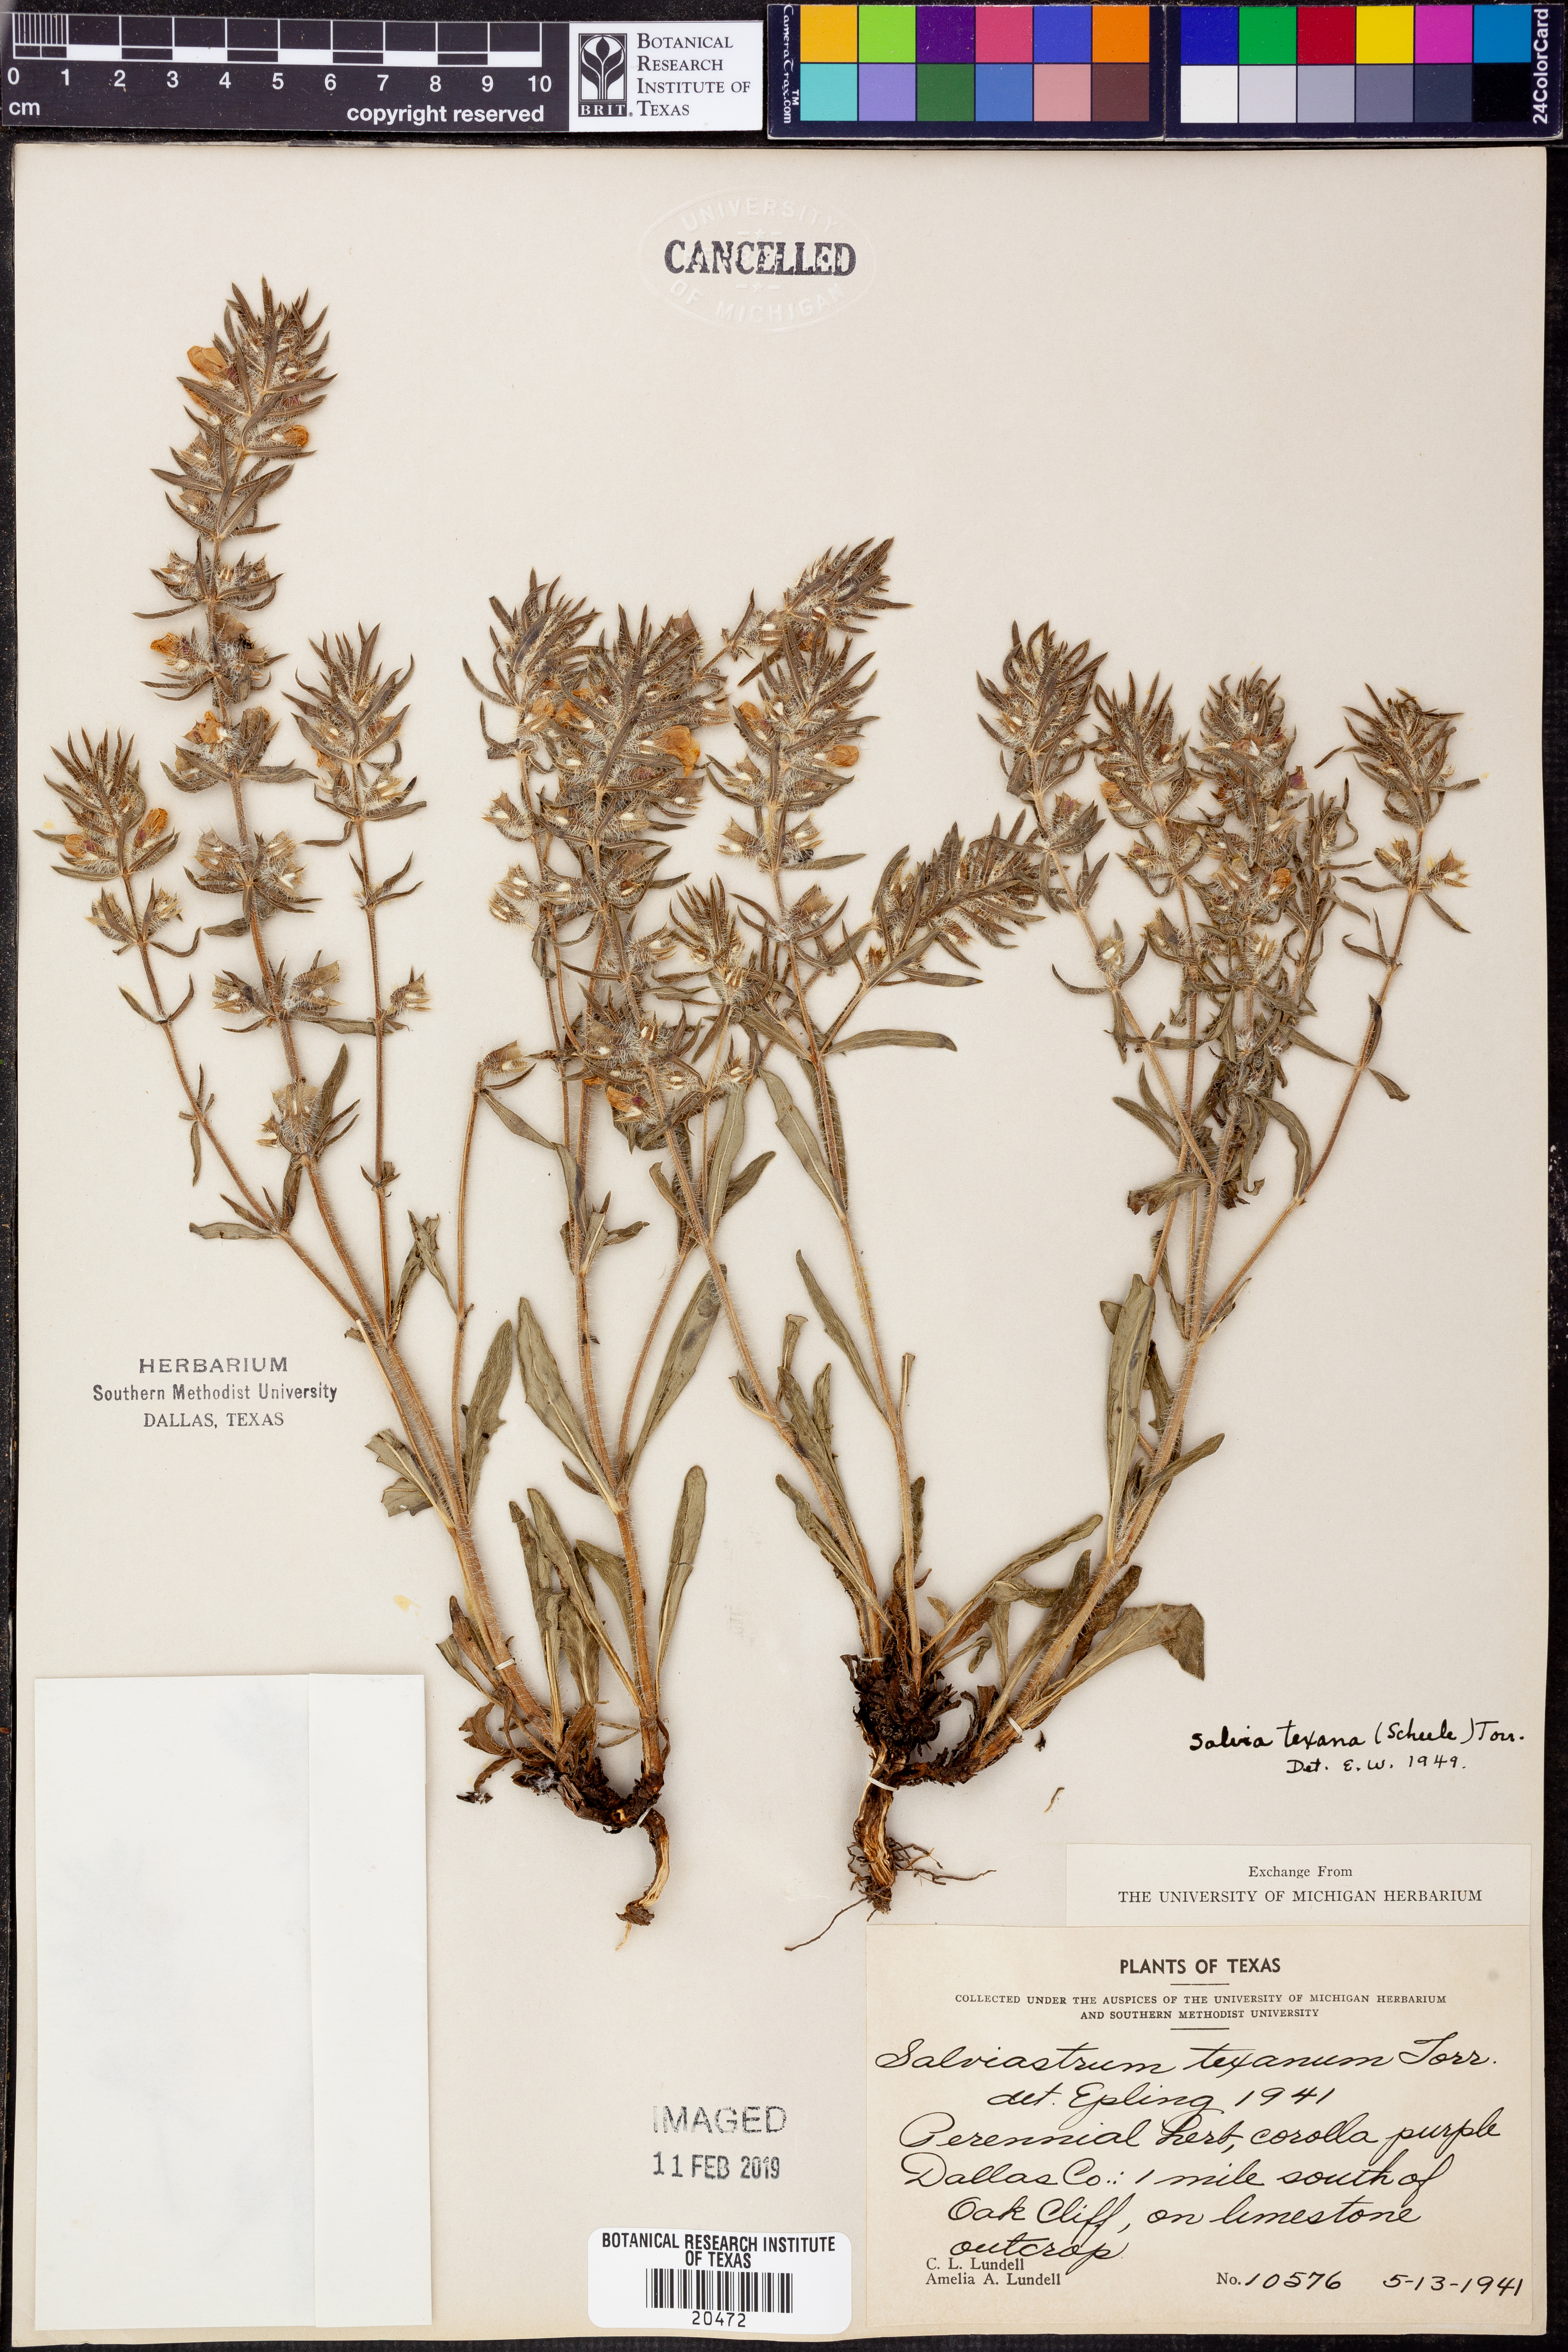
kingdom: Plantae
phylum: Tracheophyta
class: Magnoliopsida
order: Lamiales
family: Lamiaceae
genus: Salvia
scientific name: Salvia texana
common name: Texas sage
